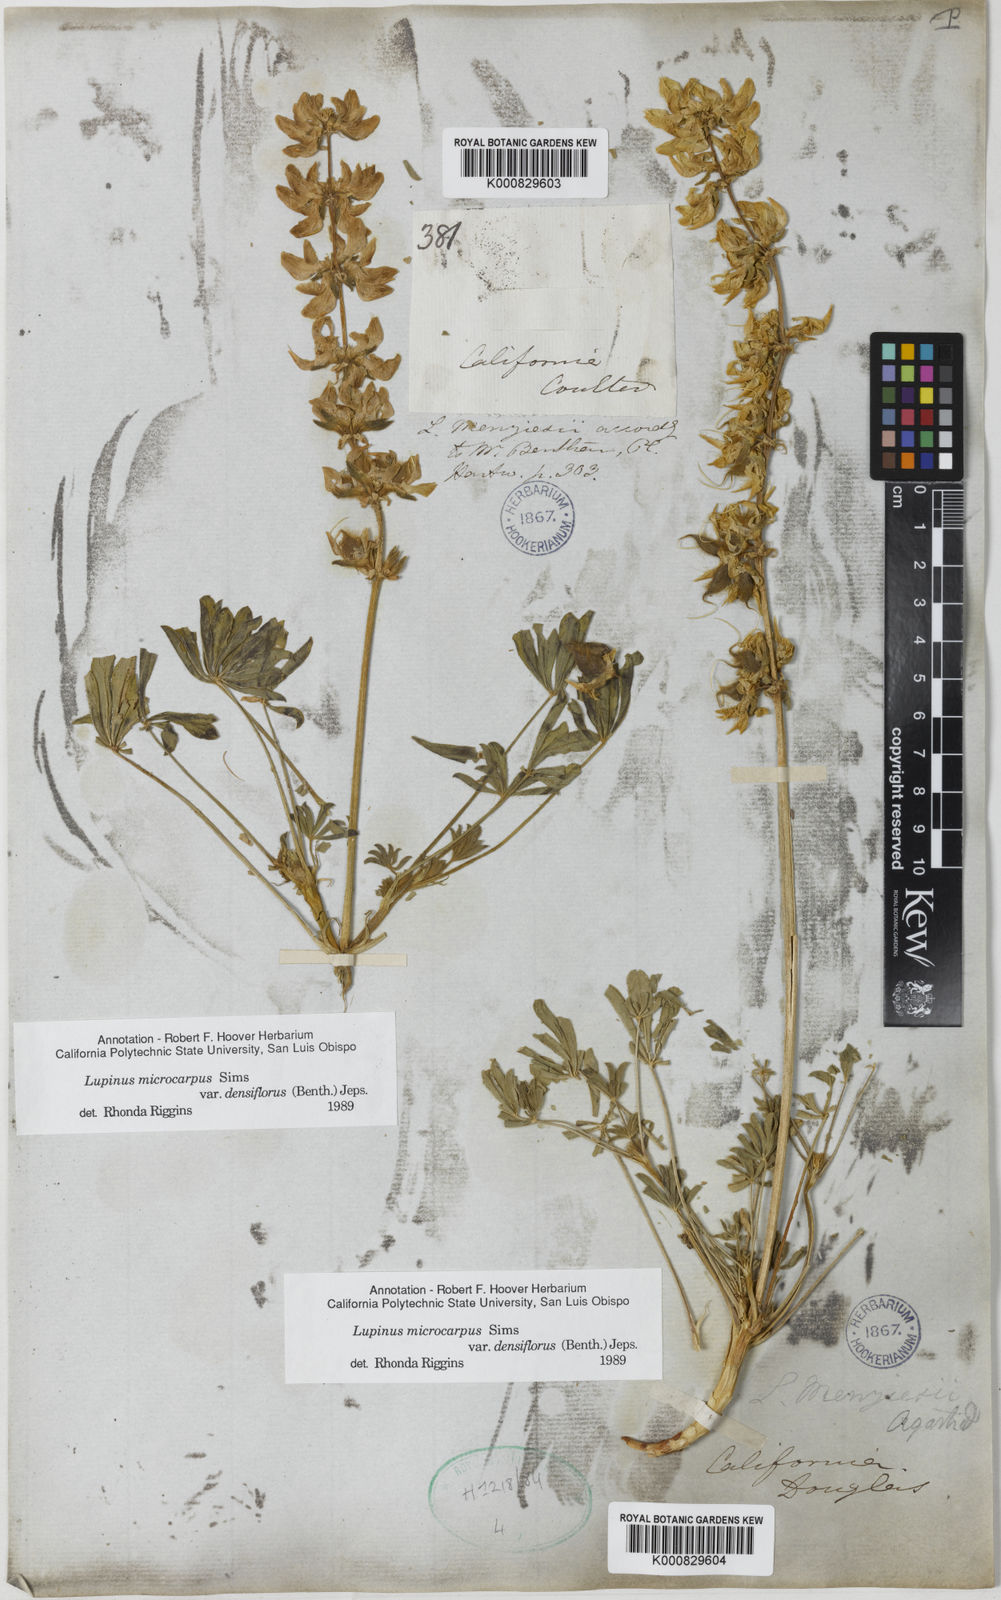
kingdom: Plantae
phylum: Tracheophyta
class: Magnoliopsida
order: Fabales
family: Fabaceae
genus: Lupinus
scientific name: Lupinus densiflorus
